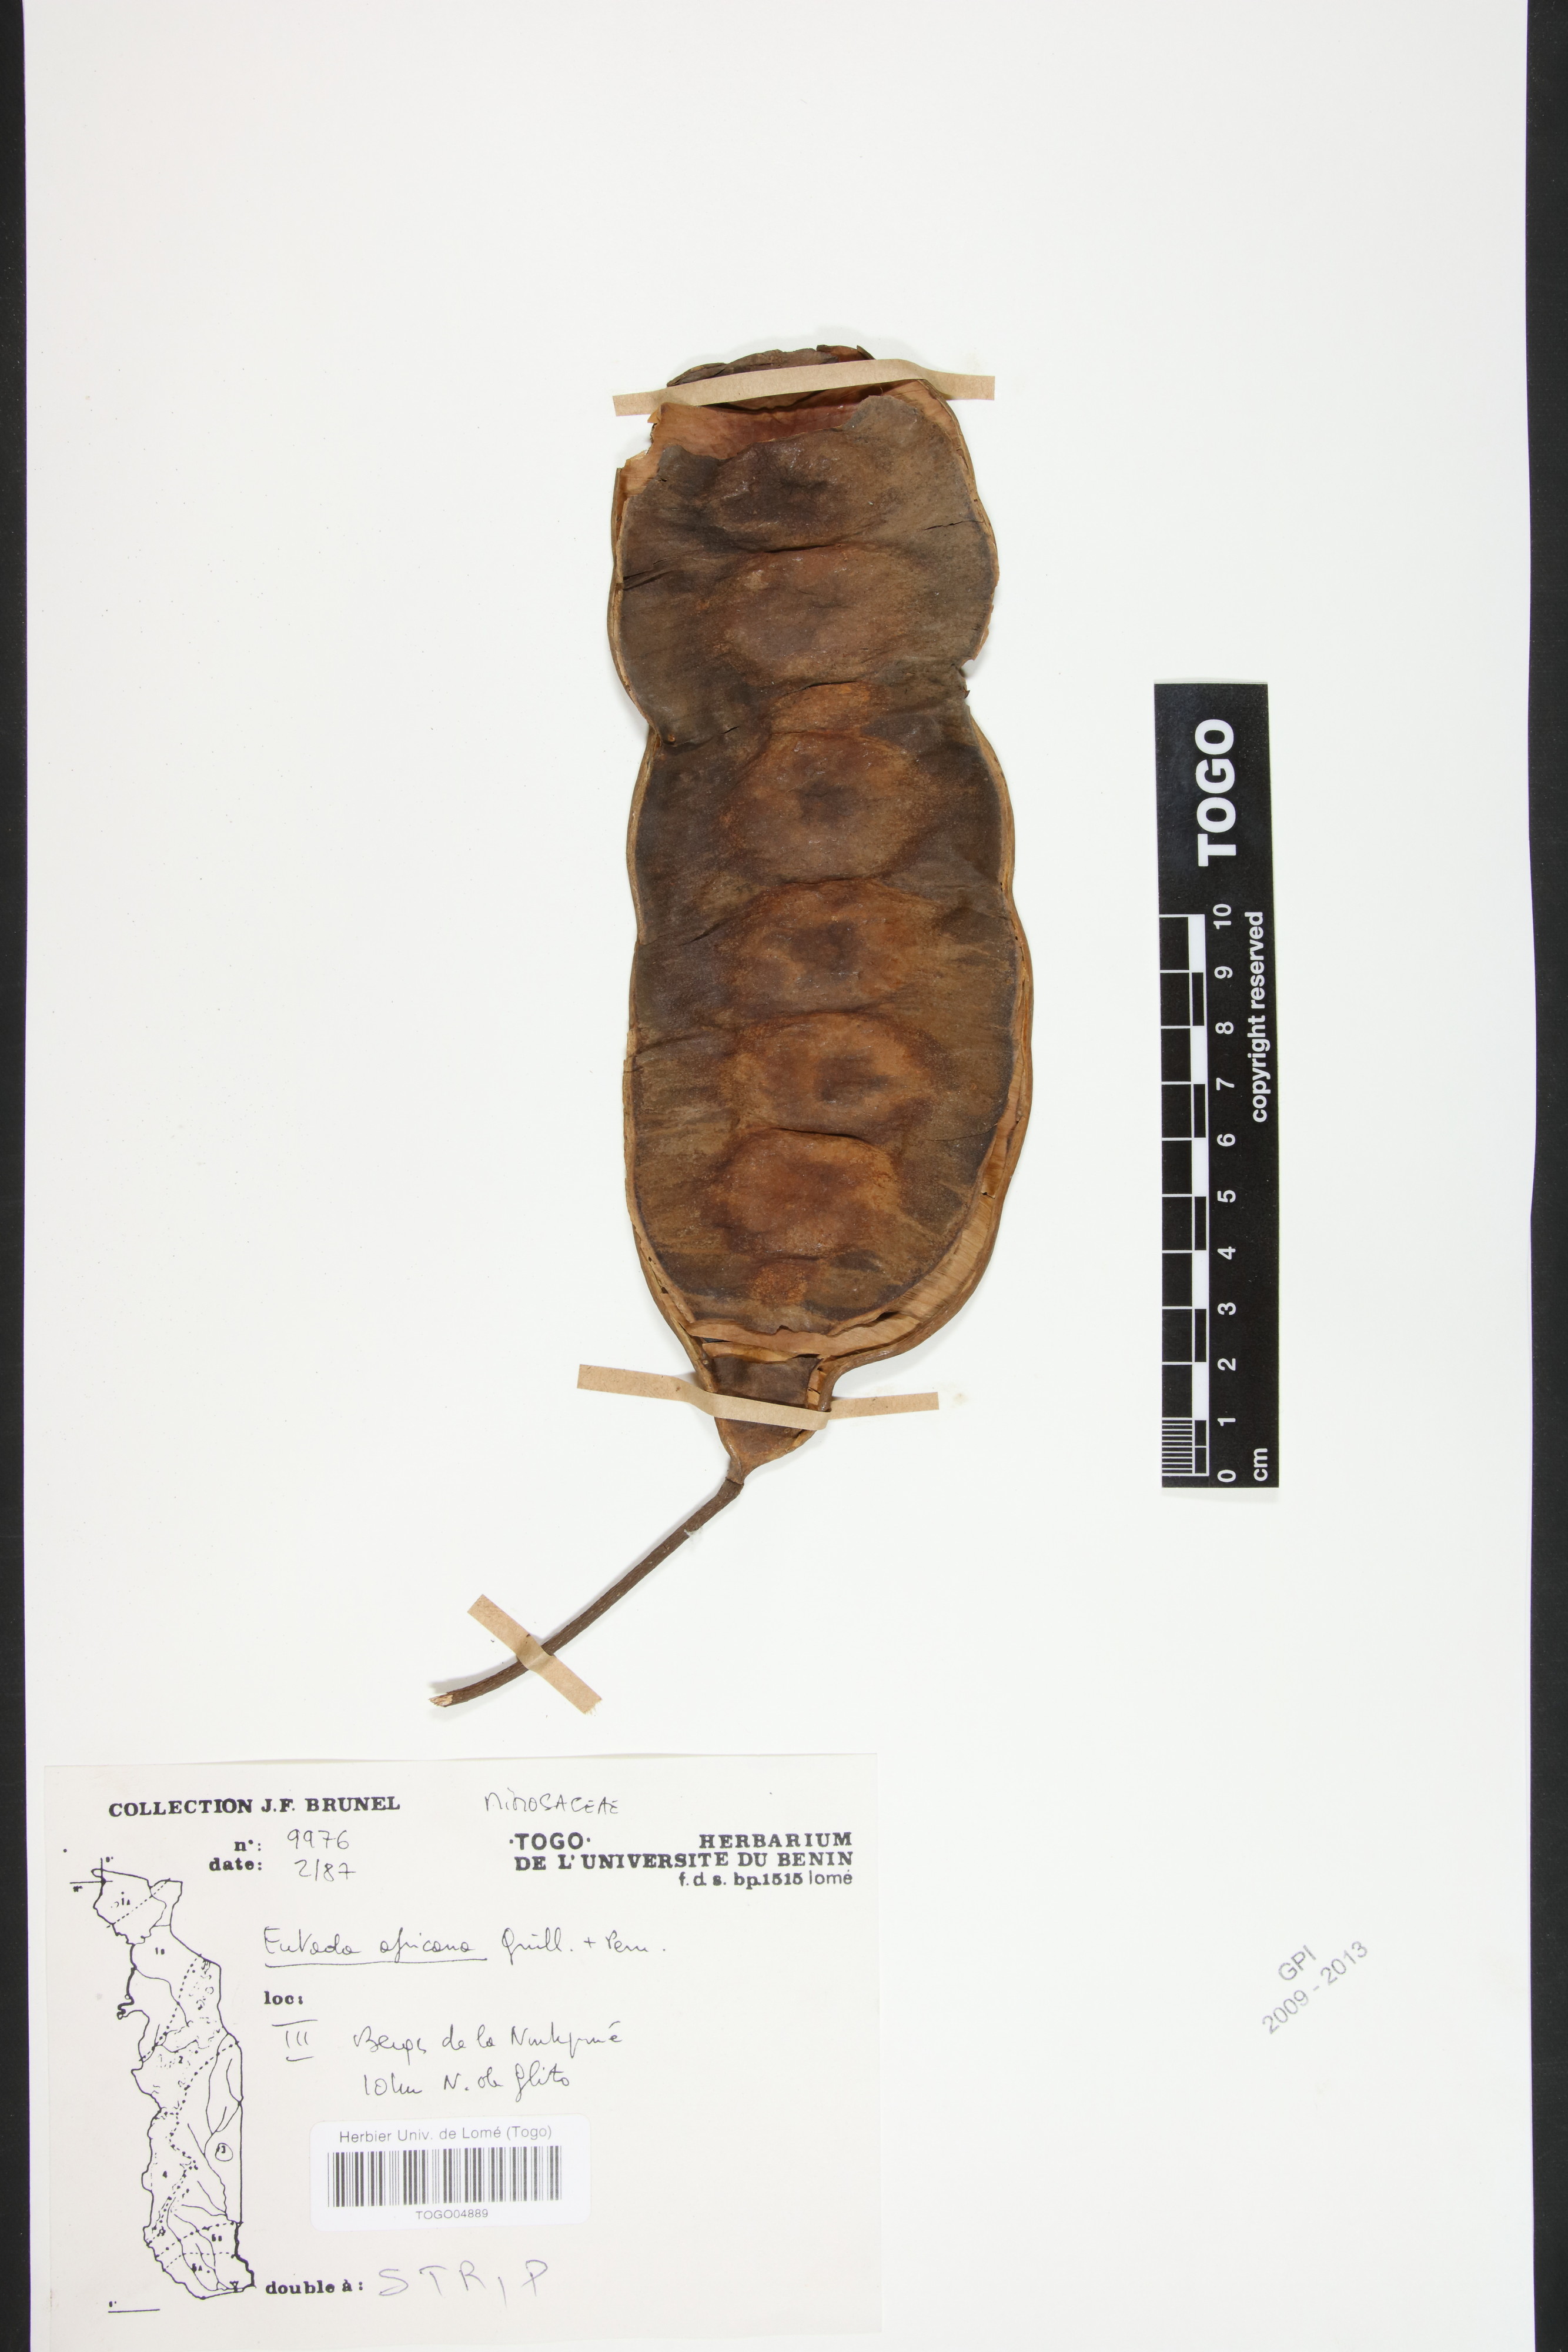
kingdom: Plantae
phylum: Tracheophyta
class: Magnoliopsida
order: Fabales
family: Fabaceae
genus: Entada
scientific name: Entada africana
